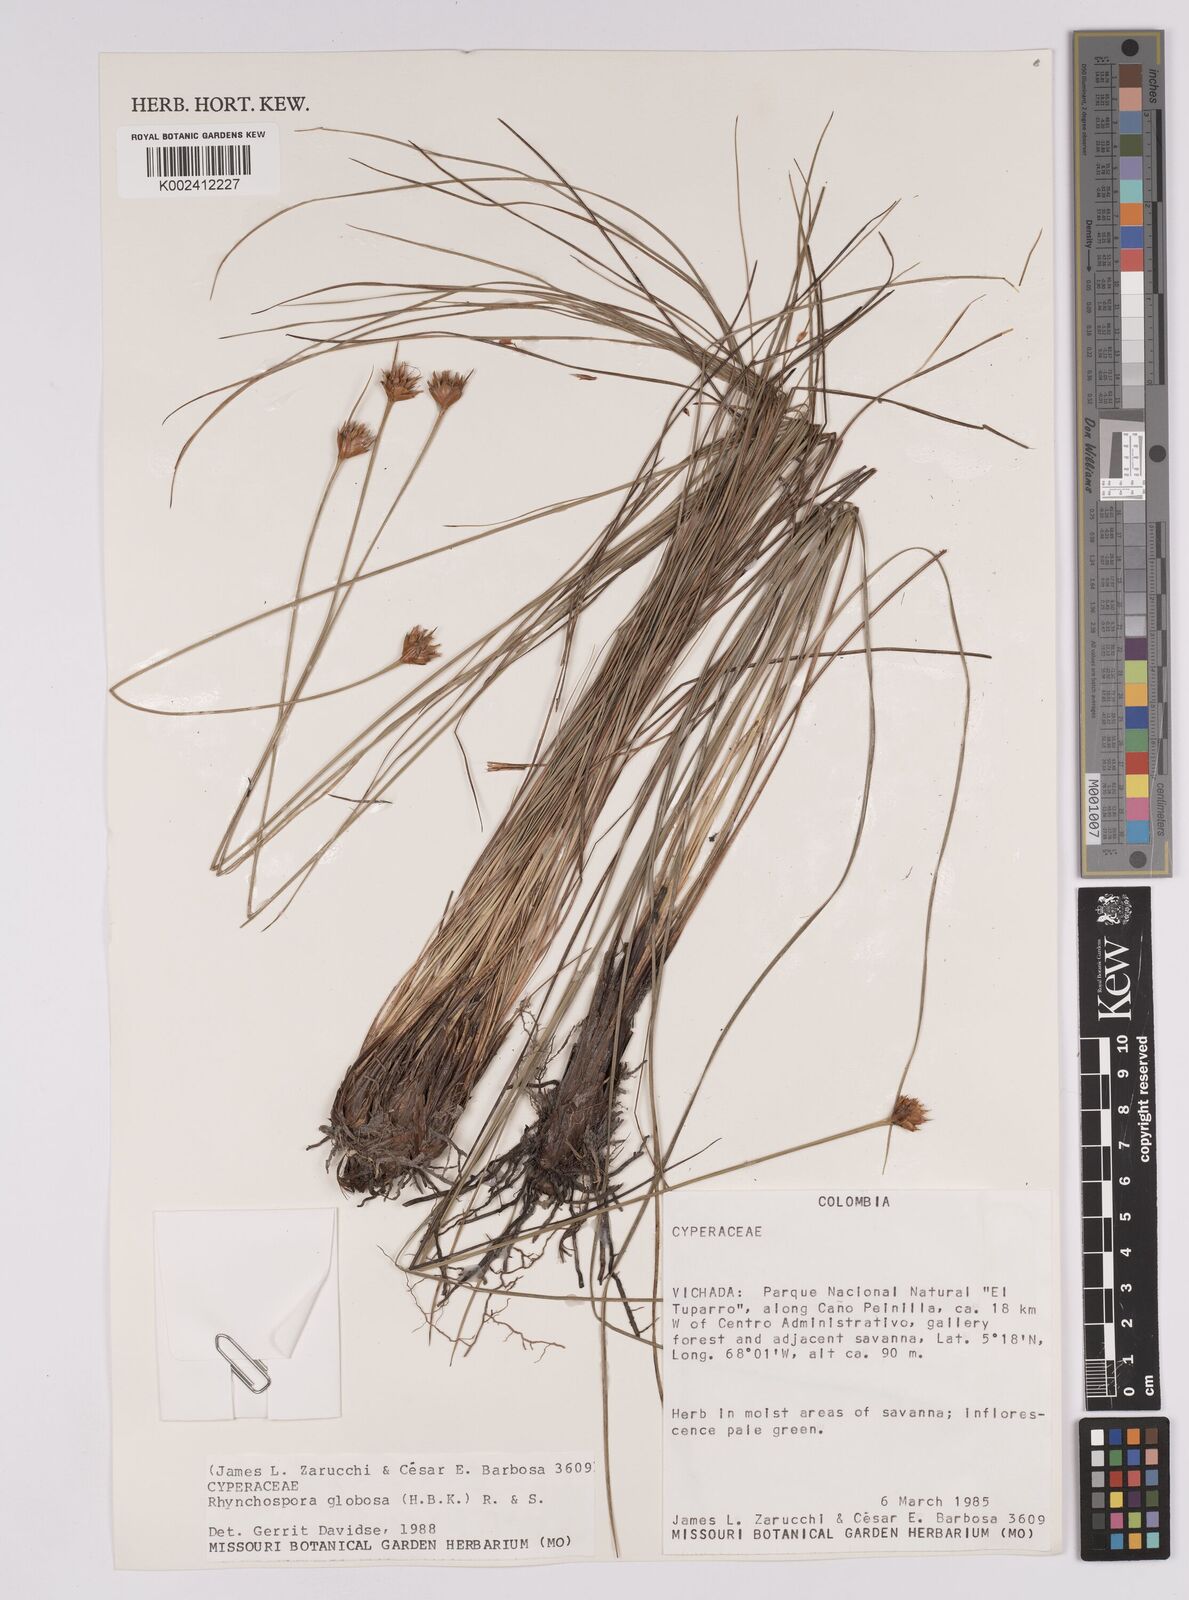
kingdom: Plantae
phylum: Tracheophyta
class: Liliopsida
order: Poales
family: Cyperaceae
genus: Rhynchospora
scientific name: Rhynchospora barbata
